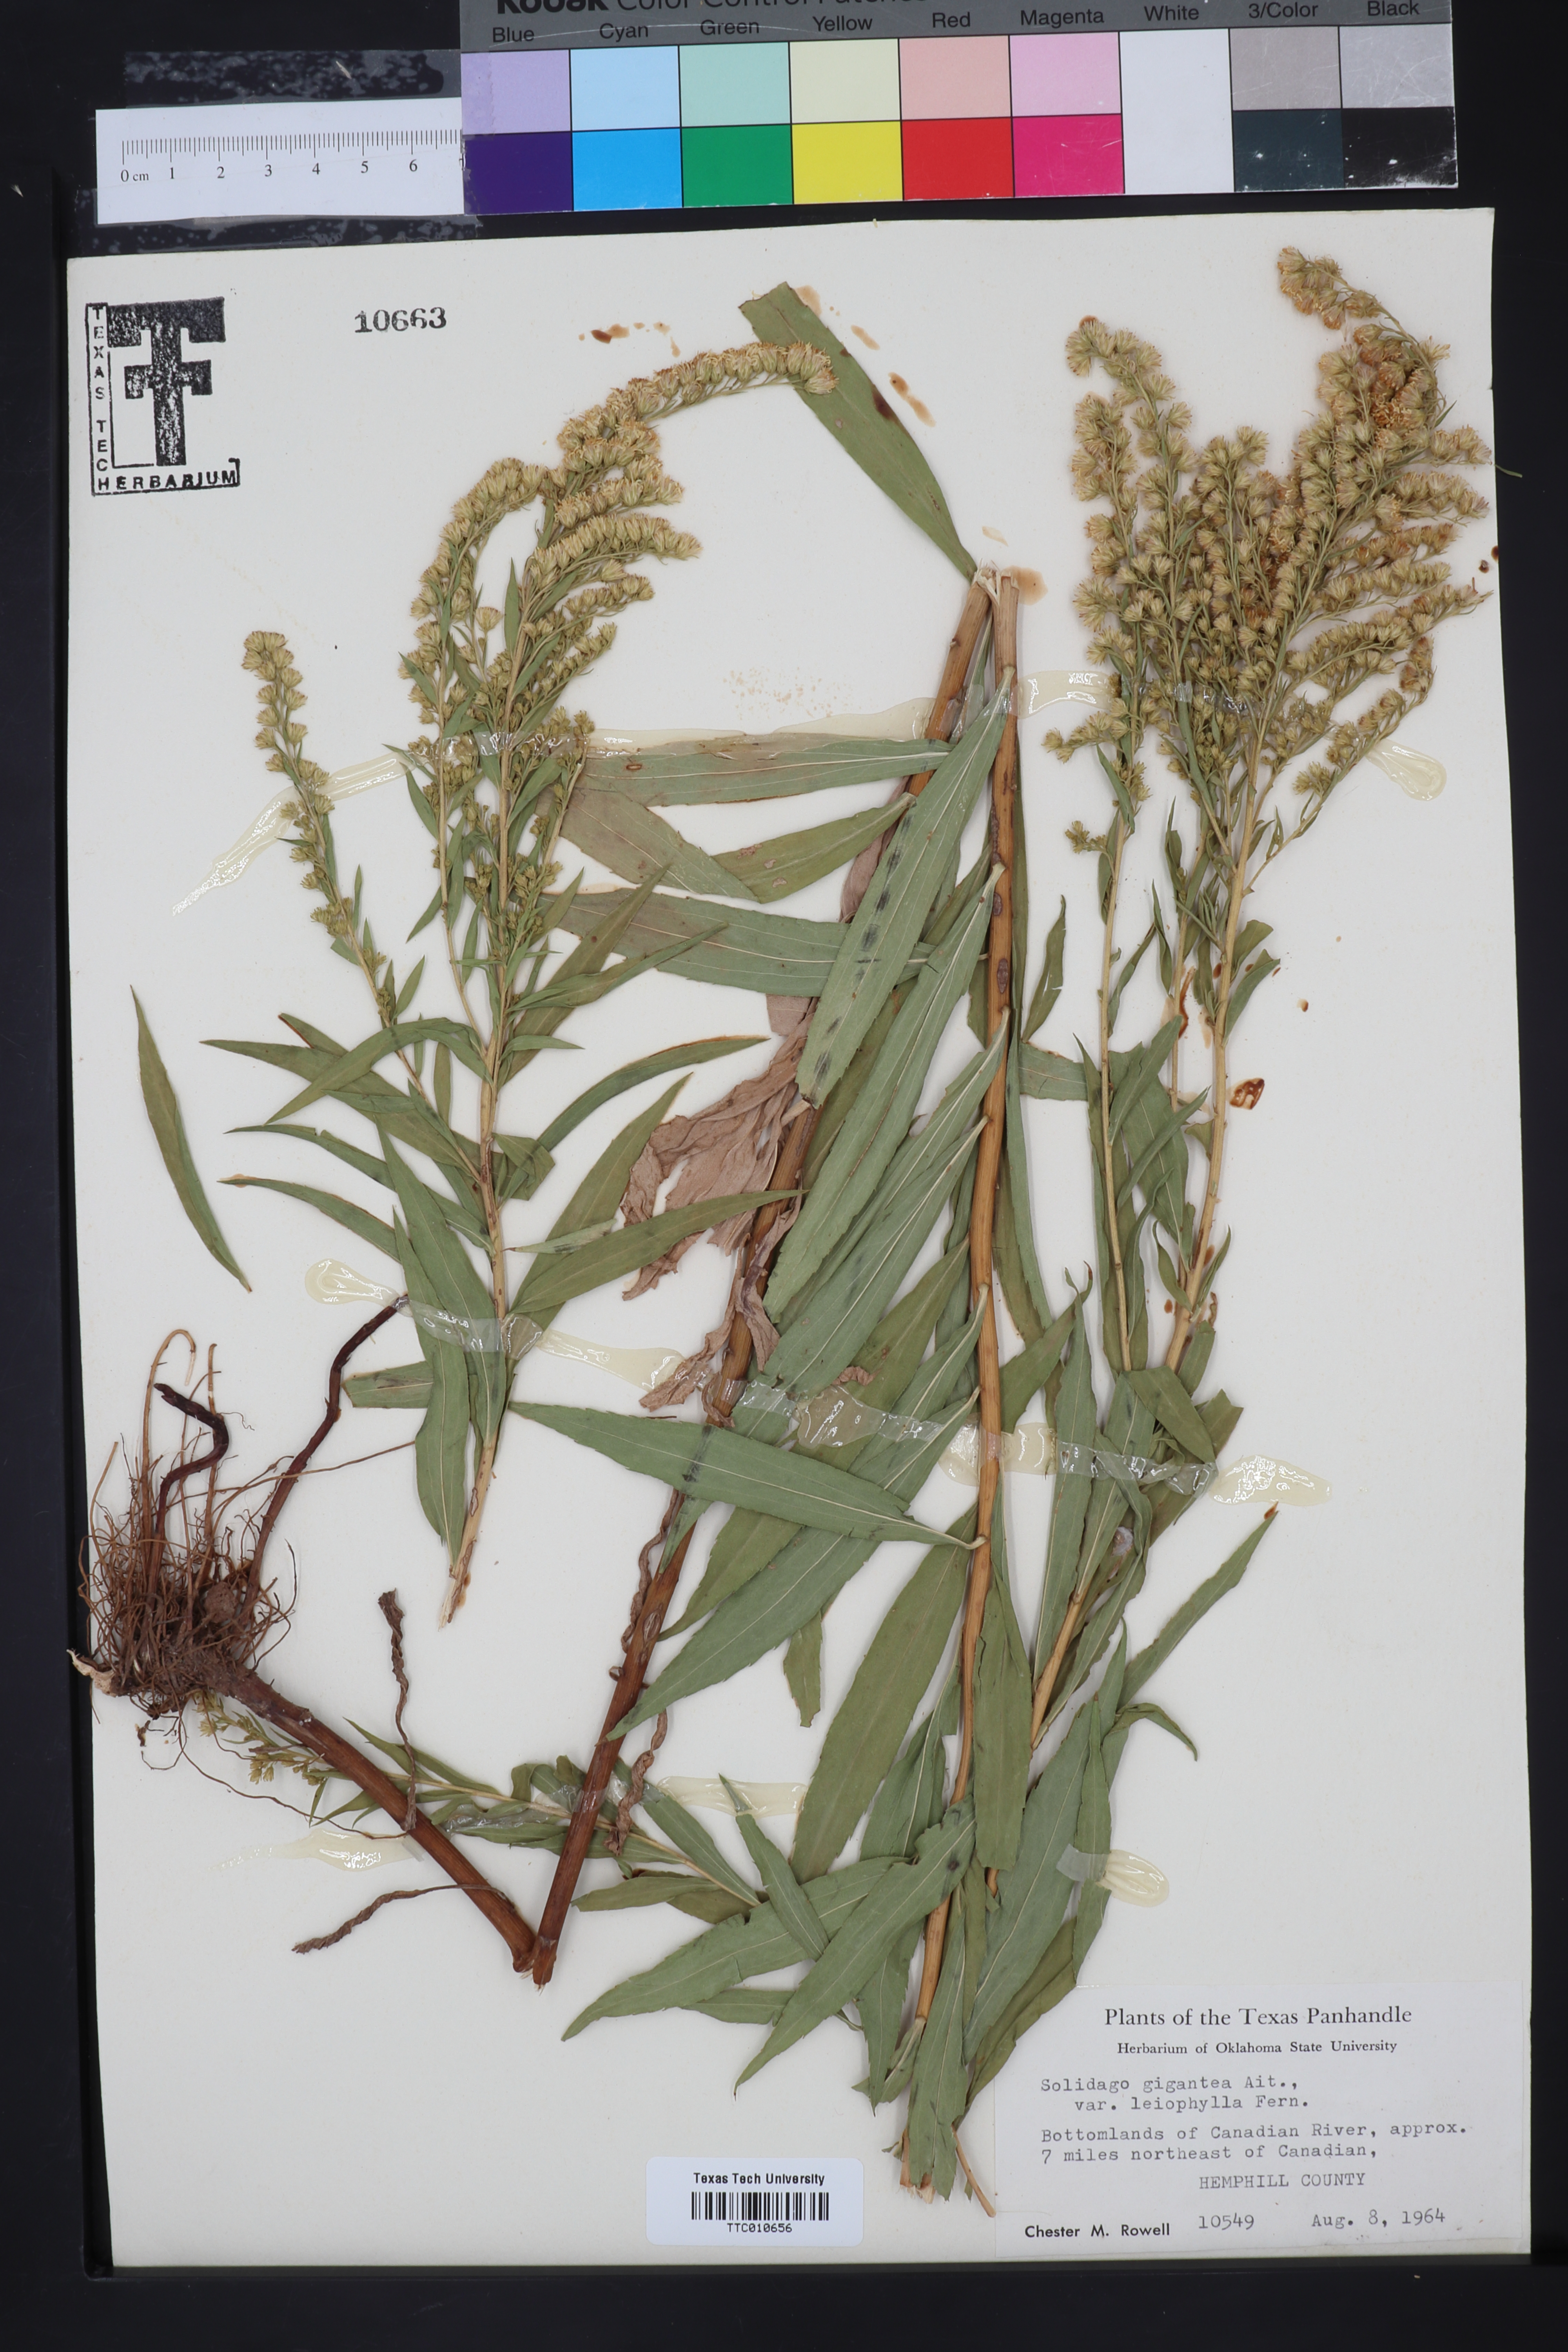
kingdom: Plantae
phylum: Tracheophyta
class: Magnoliopsida
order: Asterales
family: Asteraceae
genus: Solidago
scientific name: Solidago gigantea
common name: Giant goldenrod
